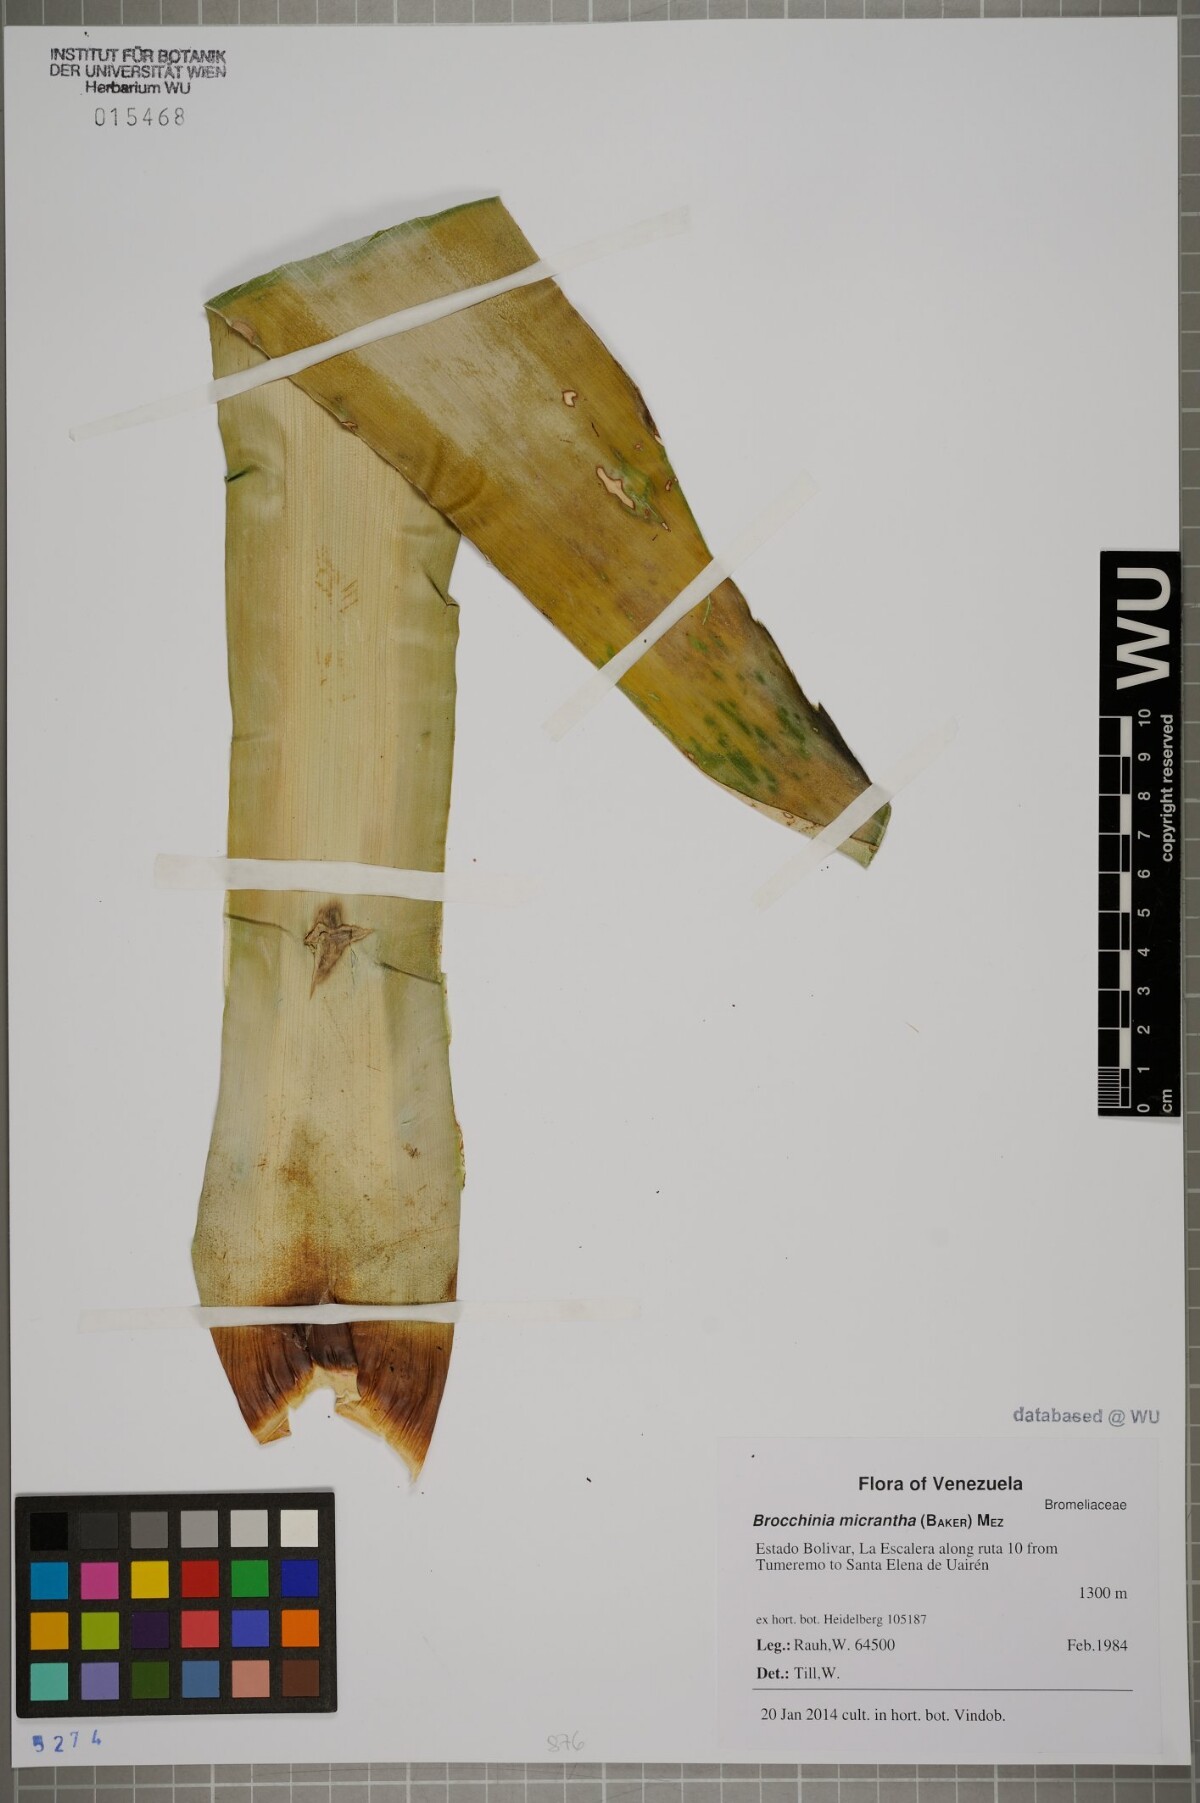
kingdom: Plantae
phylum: Tracheophyta
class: Liliopsida
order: Poales
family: Bromeliaceae
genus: Brocchinia
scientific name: Brocchinia micrantha
